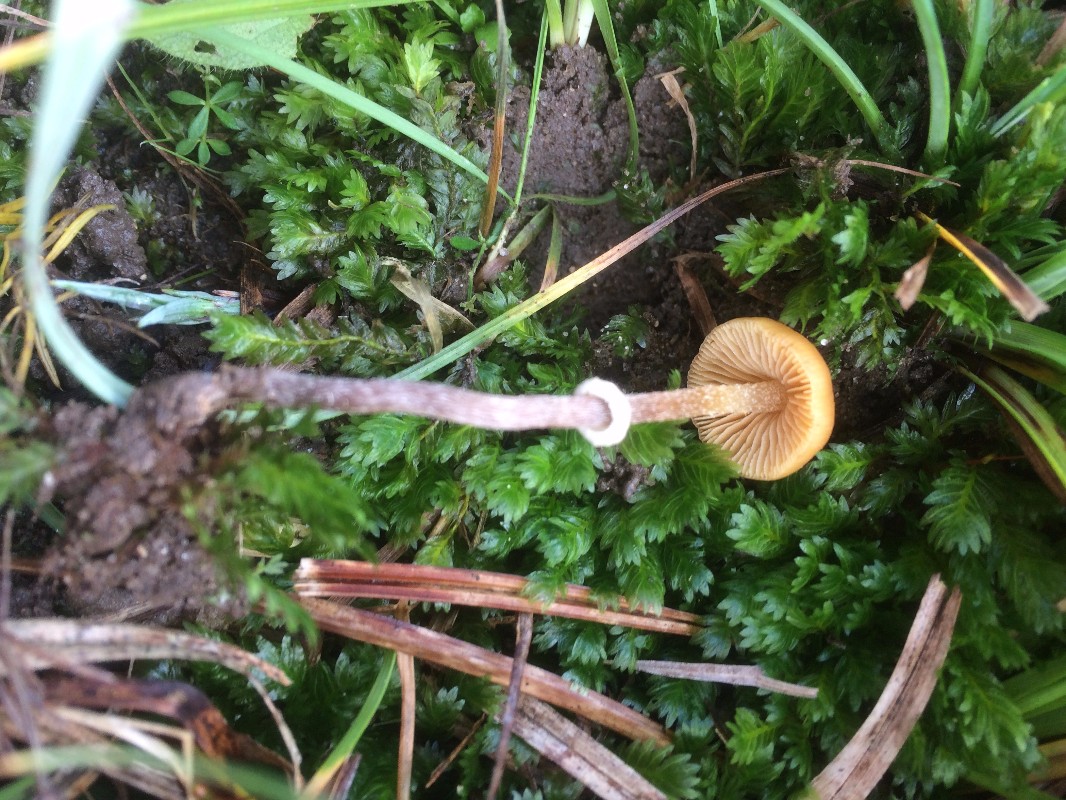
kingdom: Fungi
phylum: Basidiomycota
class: Agaricomycetes
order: Agaricales
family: Bolbitiaceae
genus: Pholiotina
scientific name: Pholiotina teneroides
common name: tosporet dansehat
